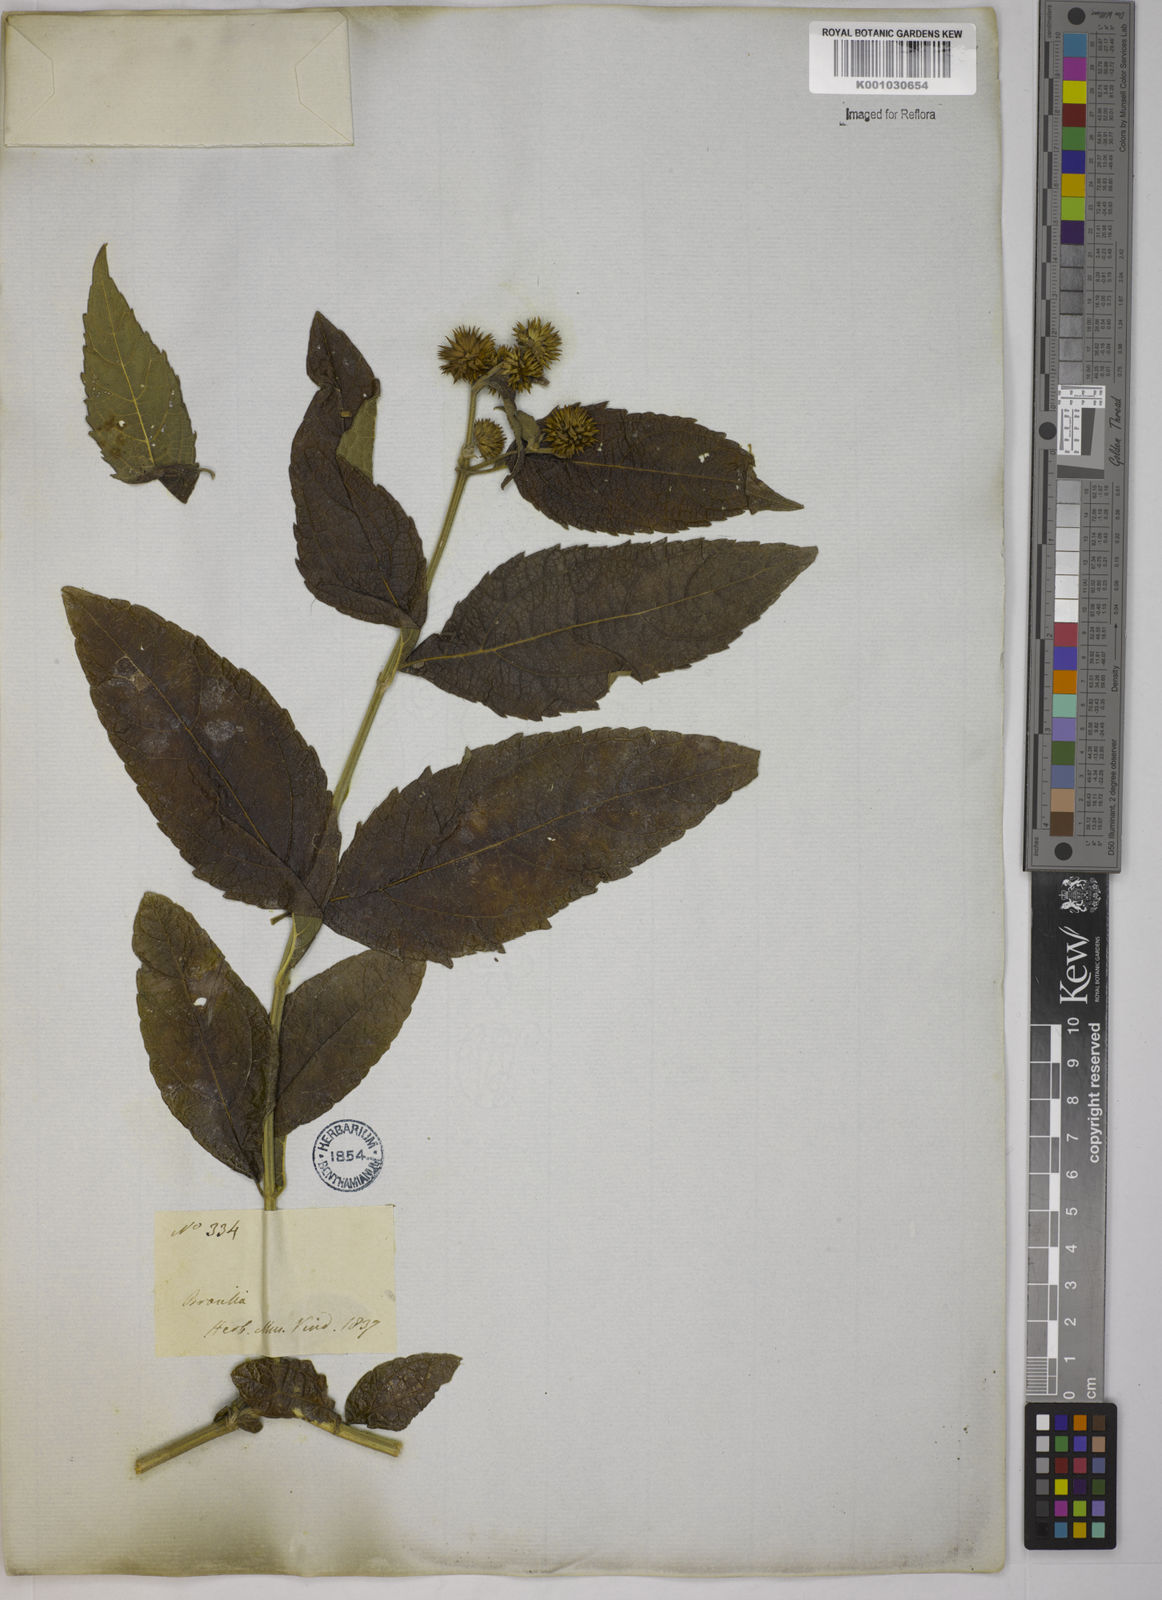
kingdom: Plantae
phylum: Tracheophyta
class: Magnoliopsida
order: Asterales
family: Asteraceae
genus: Tilesia
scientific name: Tilesia baccata
